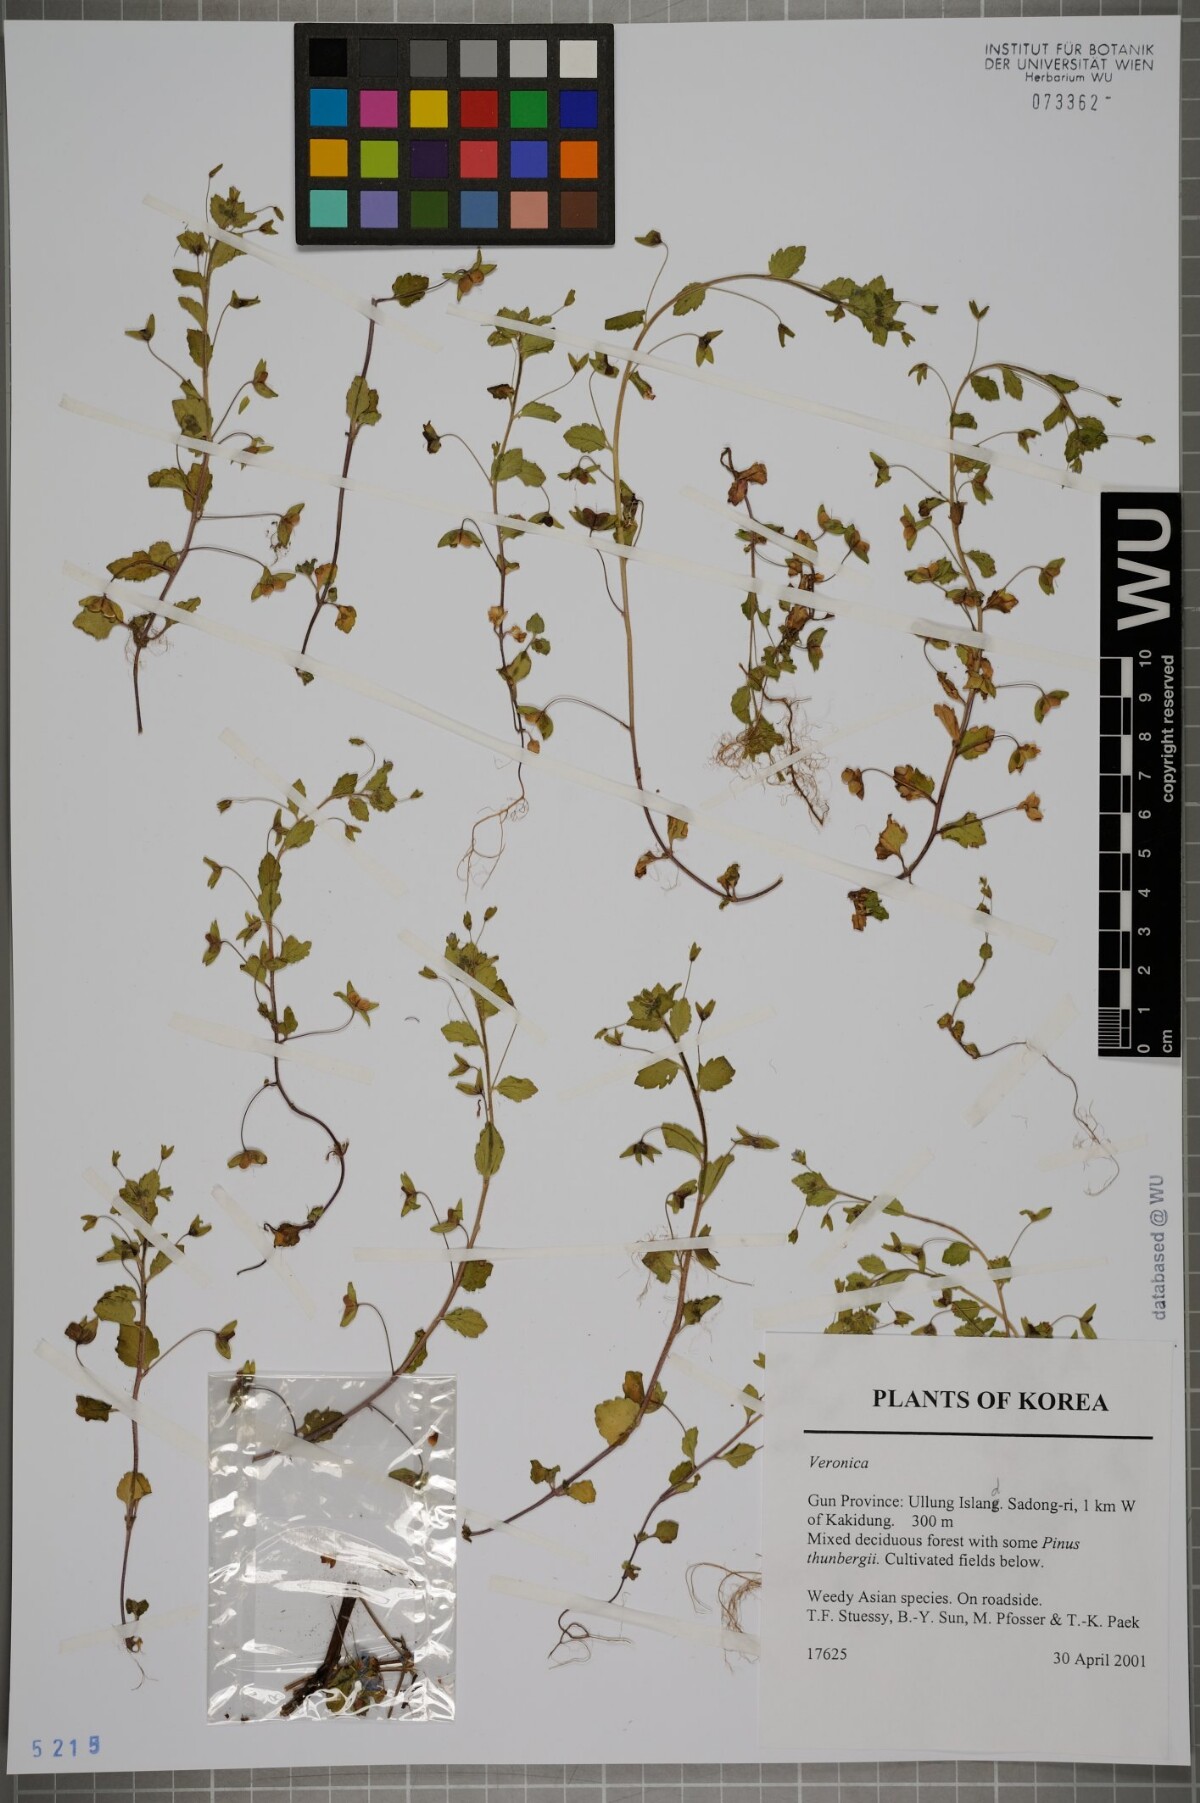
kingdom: Plantae
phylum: Tracheophyta
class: Magnoliopsida
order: Lamiales
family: Plantaginaceae
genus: Veronica
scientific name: Veronica
